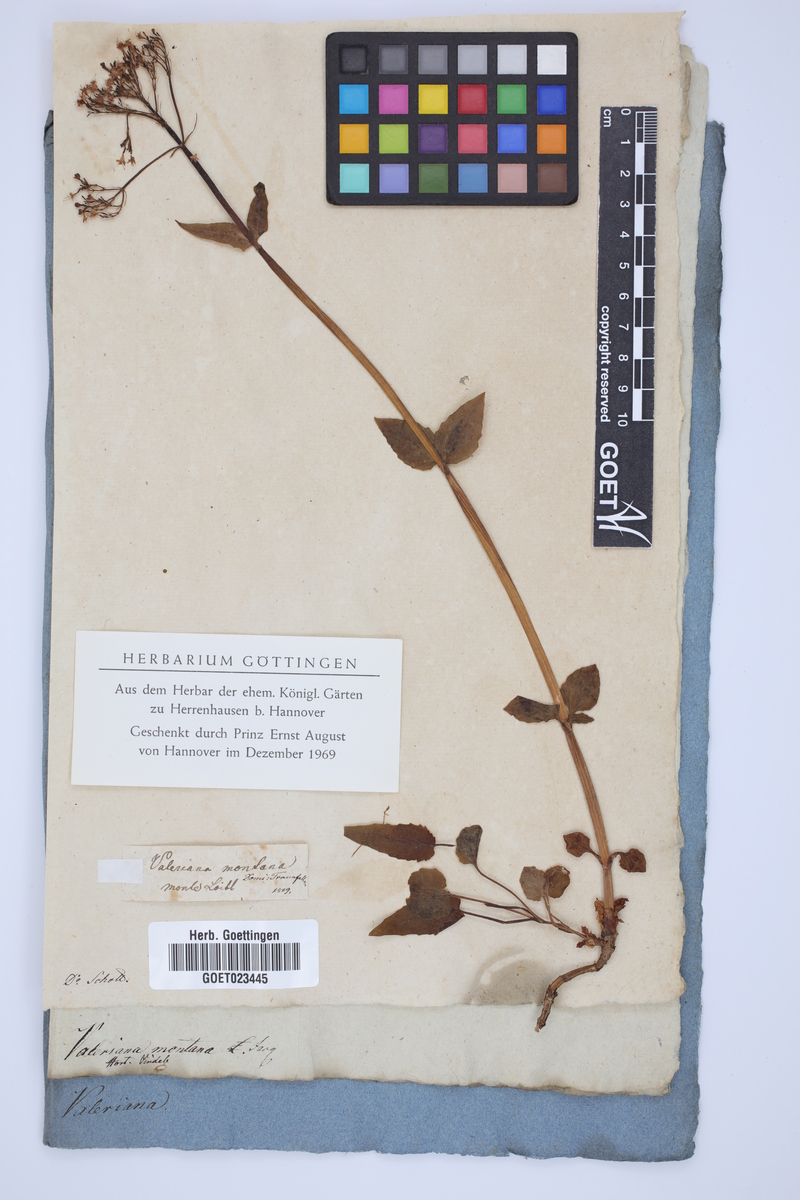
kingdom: Plantae
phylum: Tracheophyta
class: Magnoliopsida
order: Dipsacales
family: Caprifoliaceae
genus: Valeriana
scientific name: Valeriana montana
